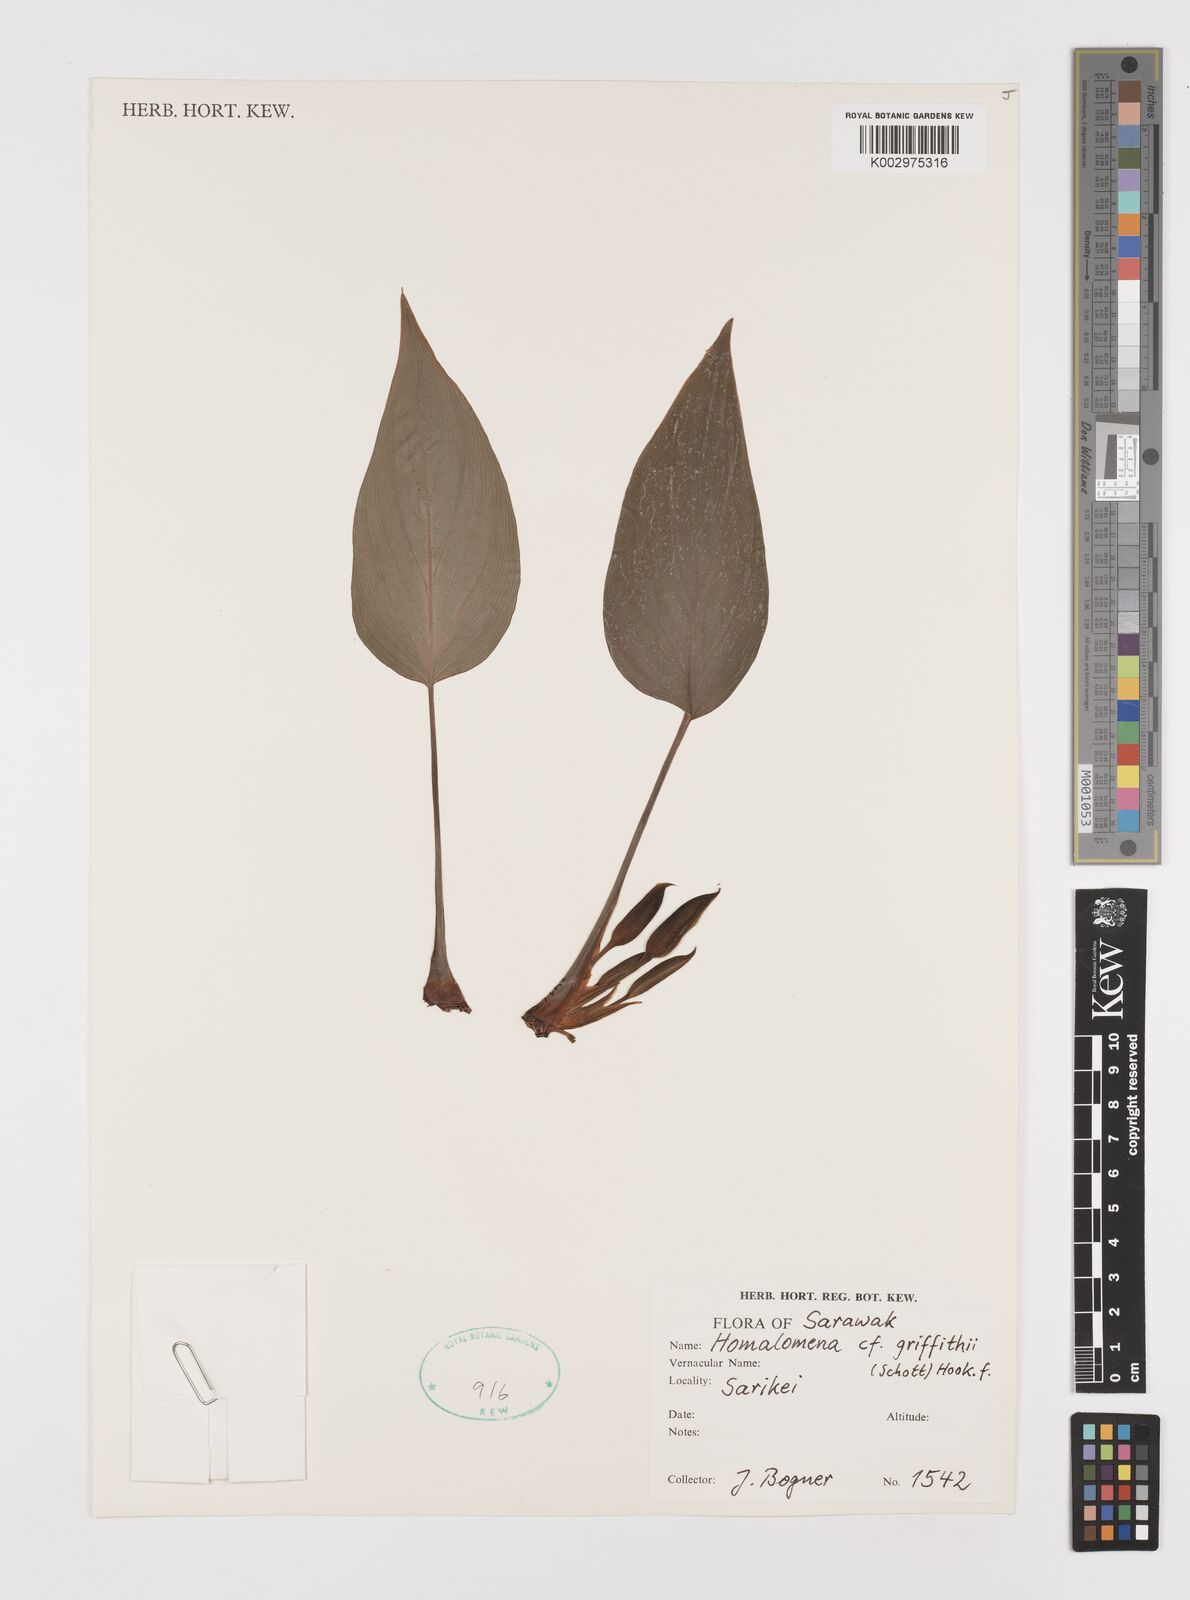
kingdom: Plantae
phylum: Tracheophyta
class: Liliopsida
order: Alismatales
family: Araceae
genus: Homalomena
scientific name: Homalomena griffithii
